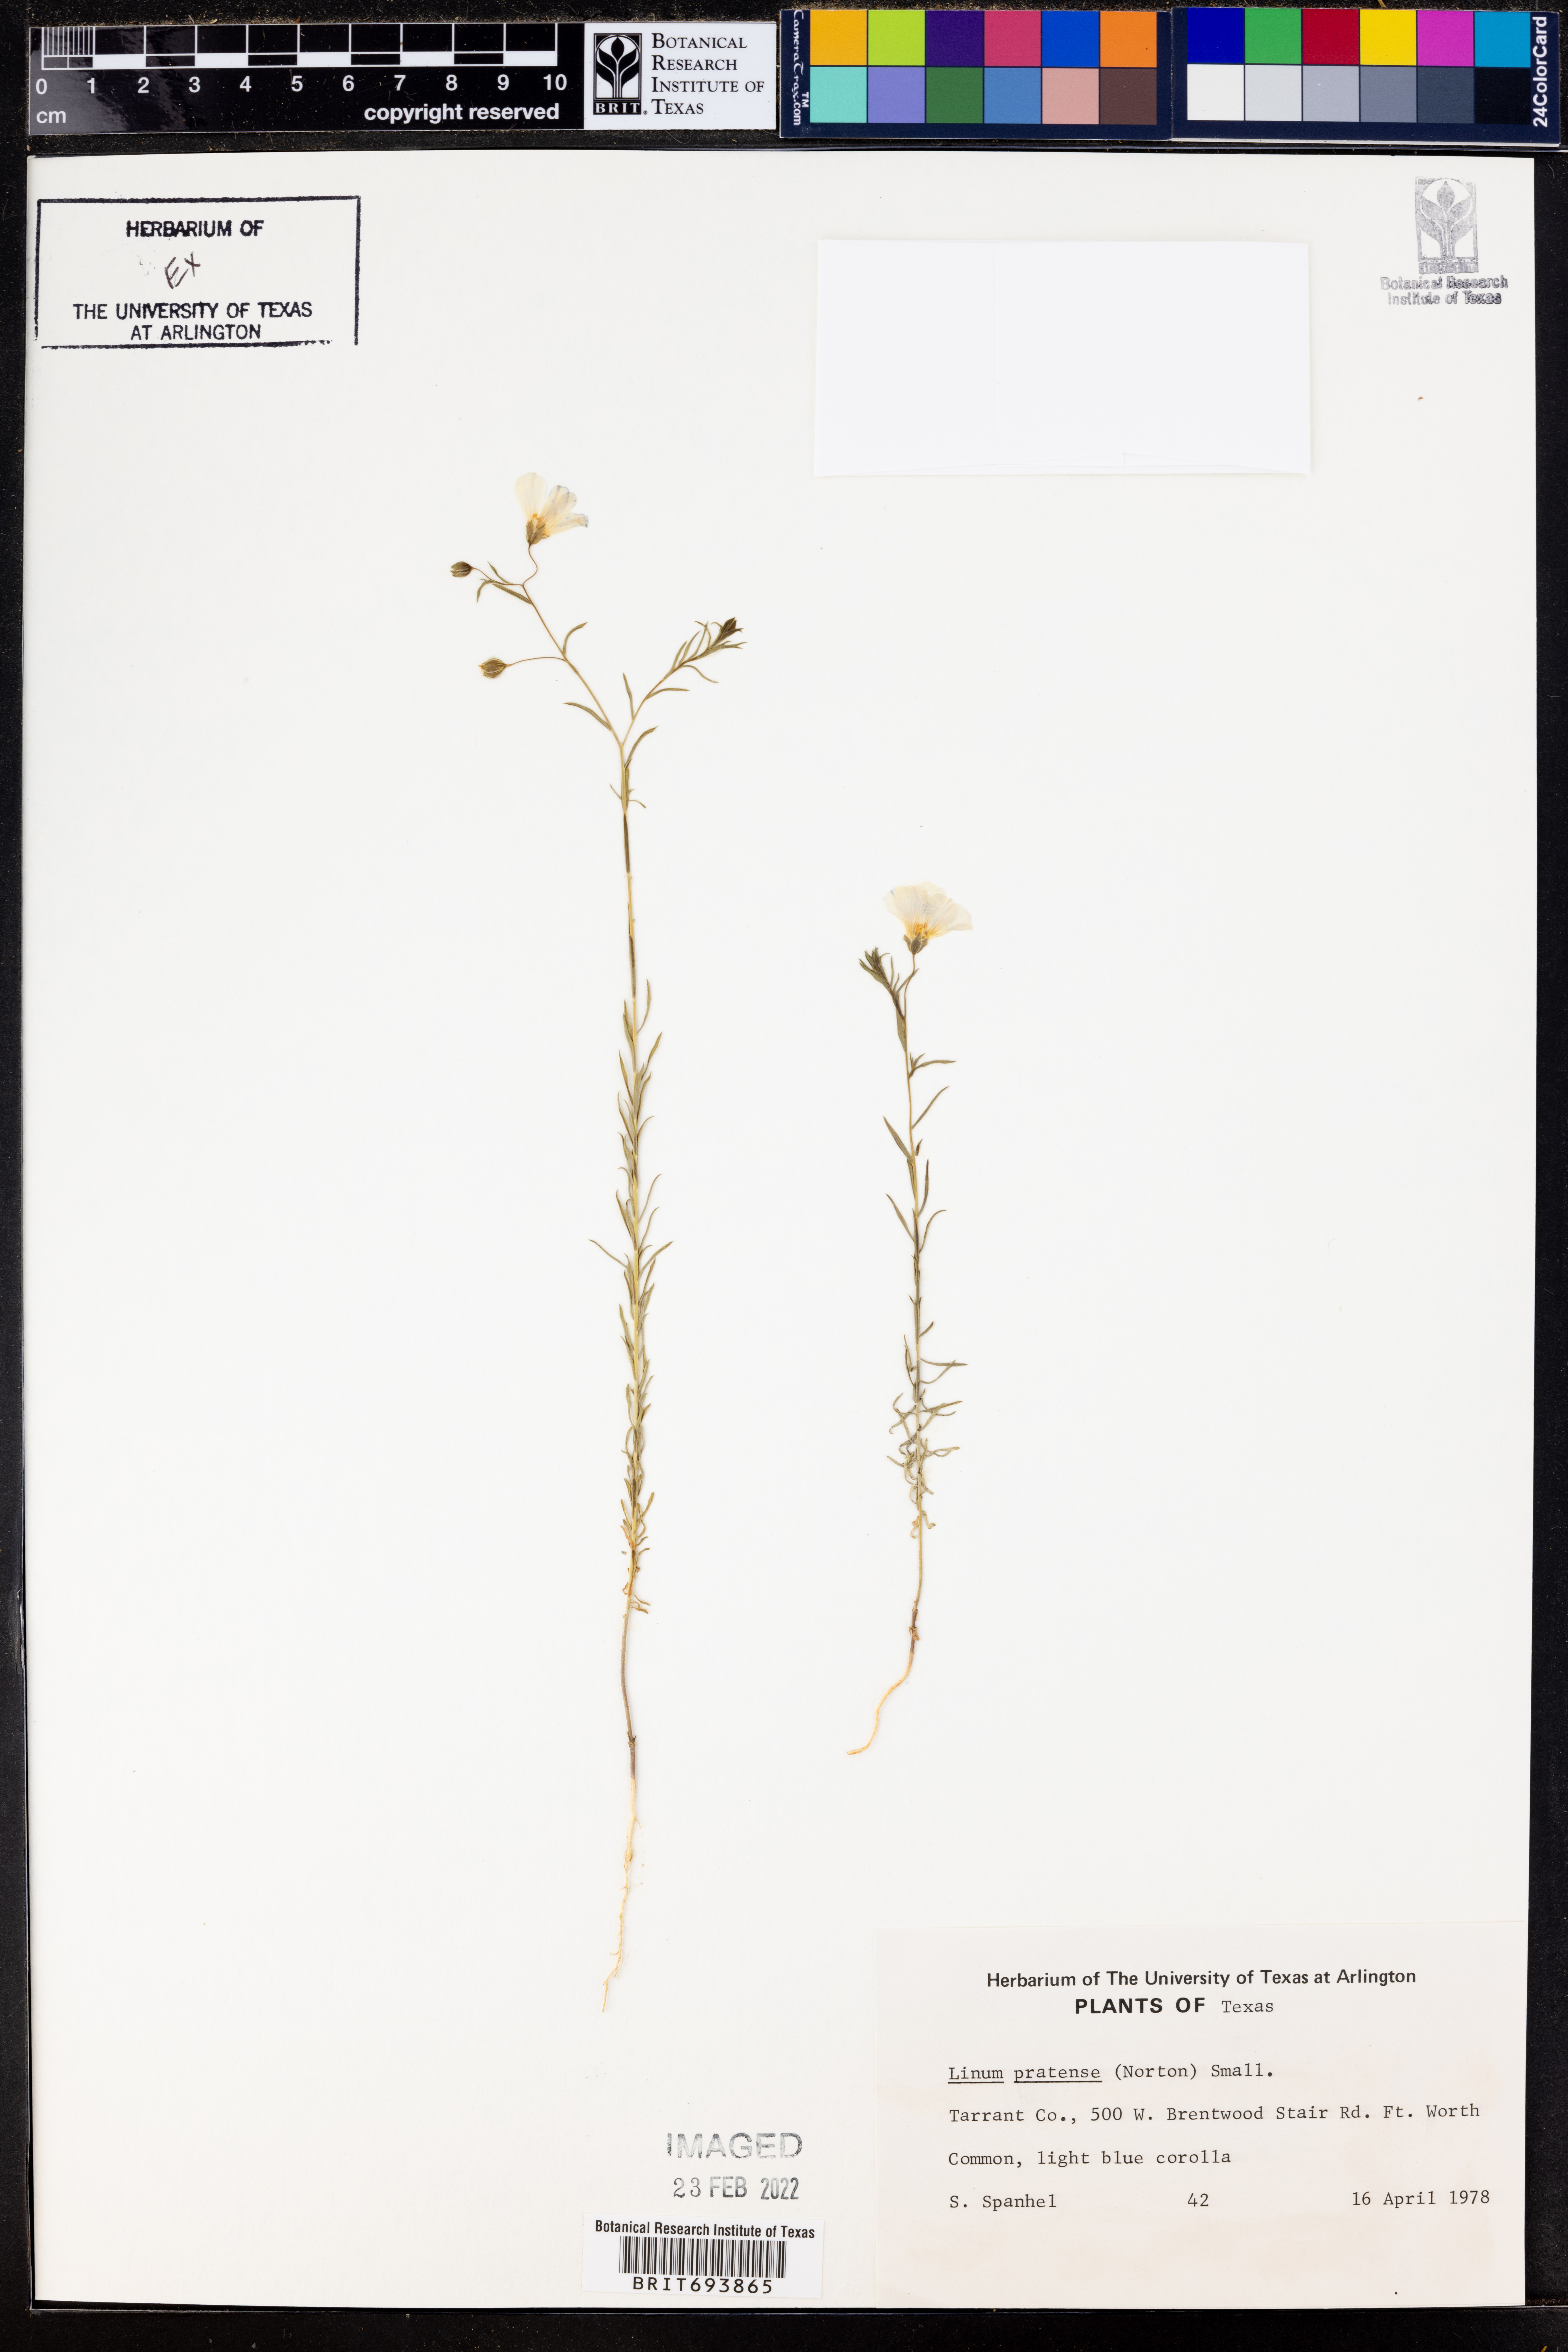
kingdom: Plantae
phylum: Tracheophyta
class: Magnoliopsida
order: Malpighiales
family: Linaceae
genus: Linum
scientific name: Linum pratense
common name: Norton's flax
